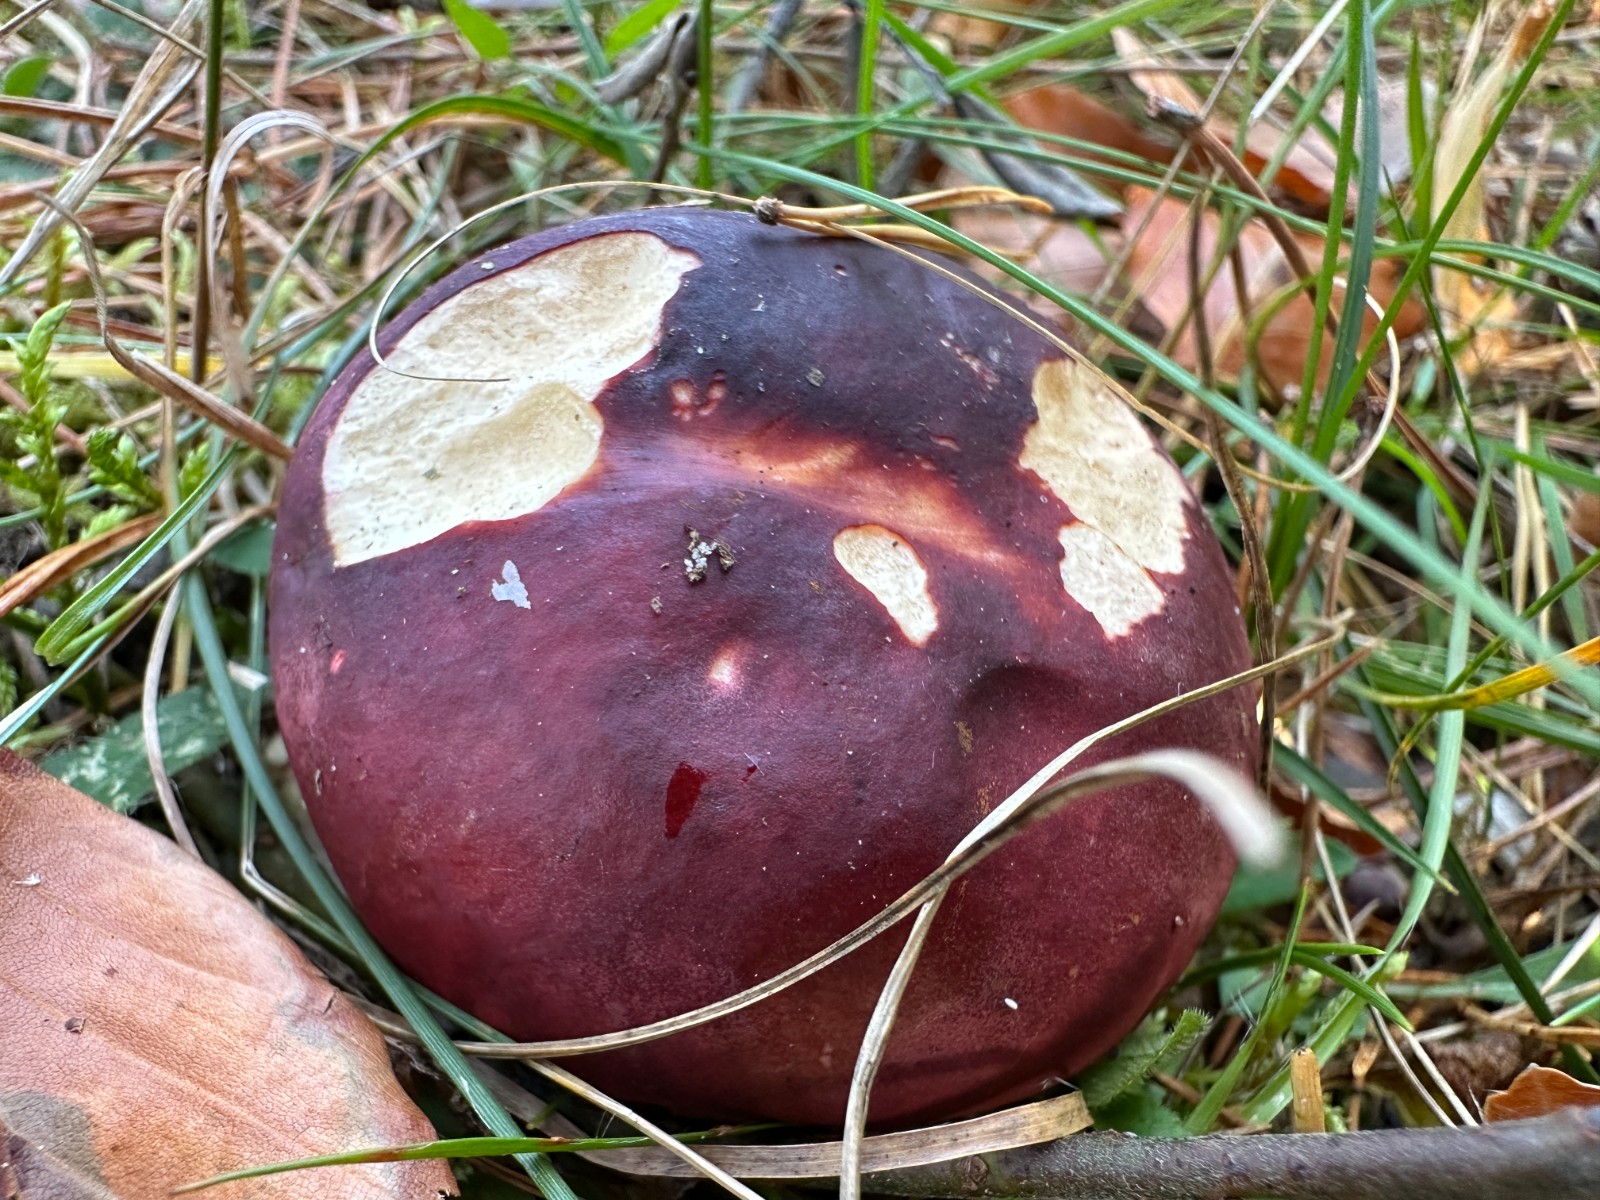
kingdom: Fungi
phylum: Basidiomycota
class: Agaricomycetes
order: Russulales
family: Russulaceae
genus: Russula
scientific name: Russula xerampelina
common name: hummer-skørhat
